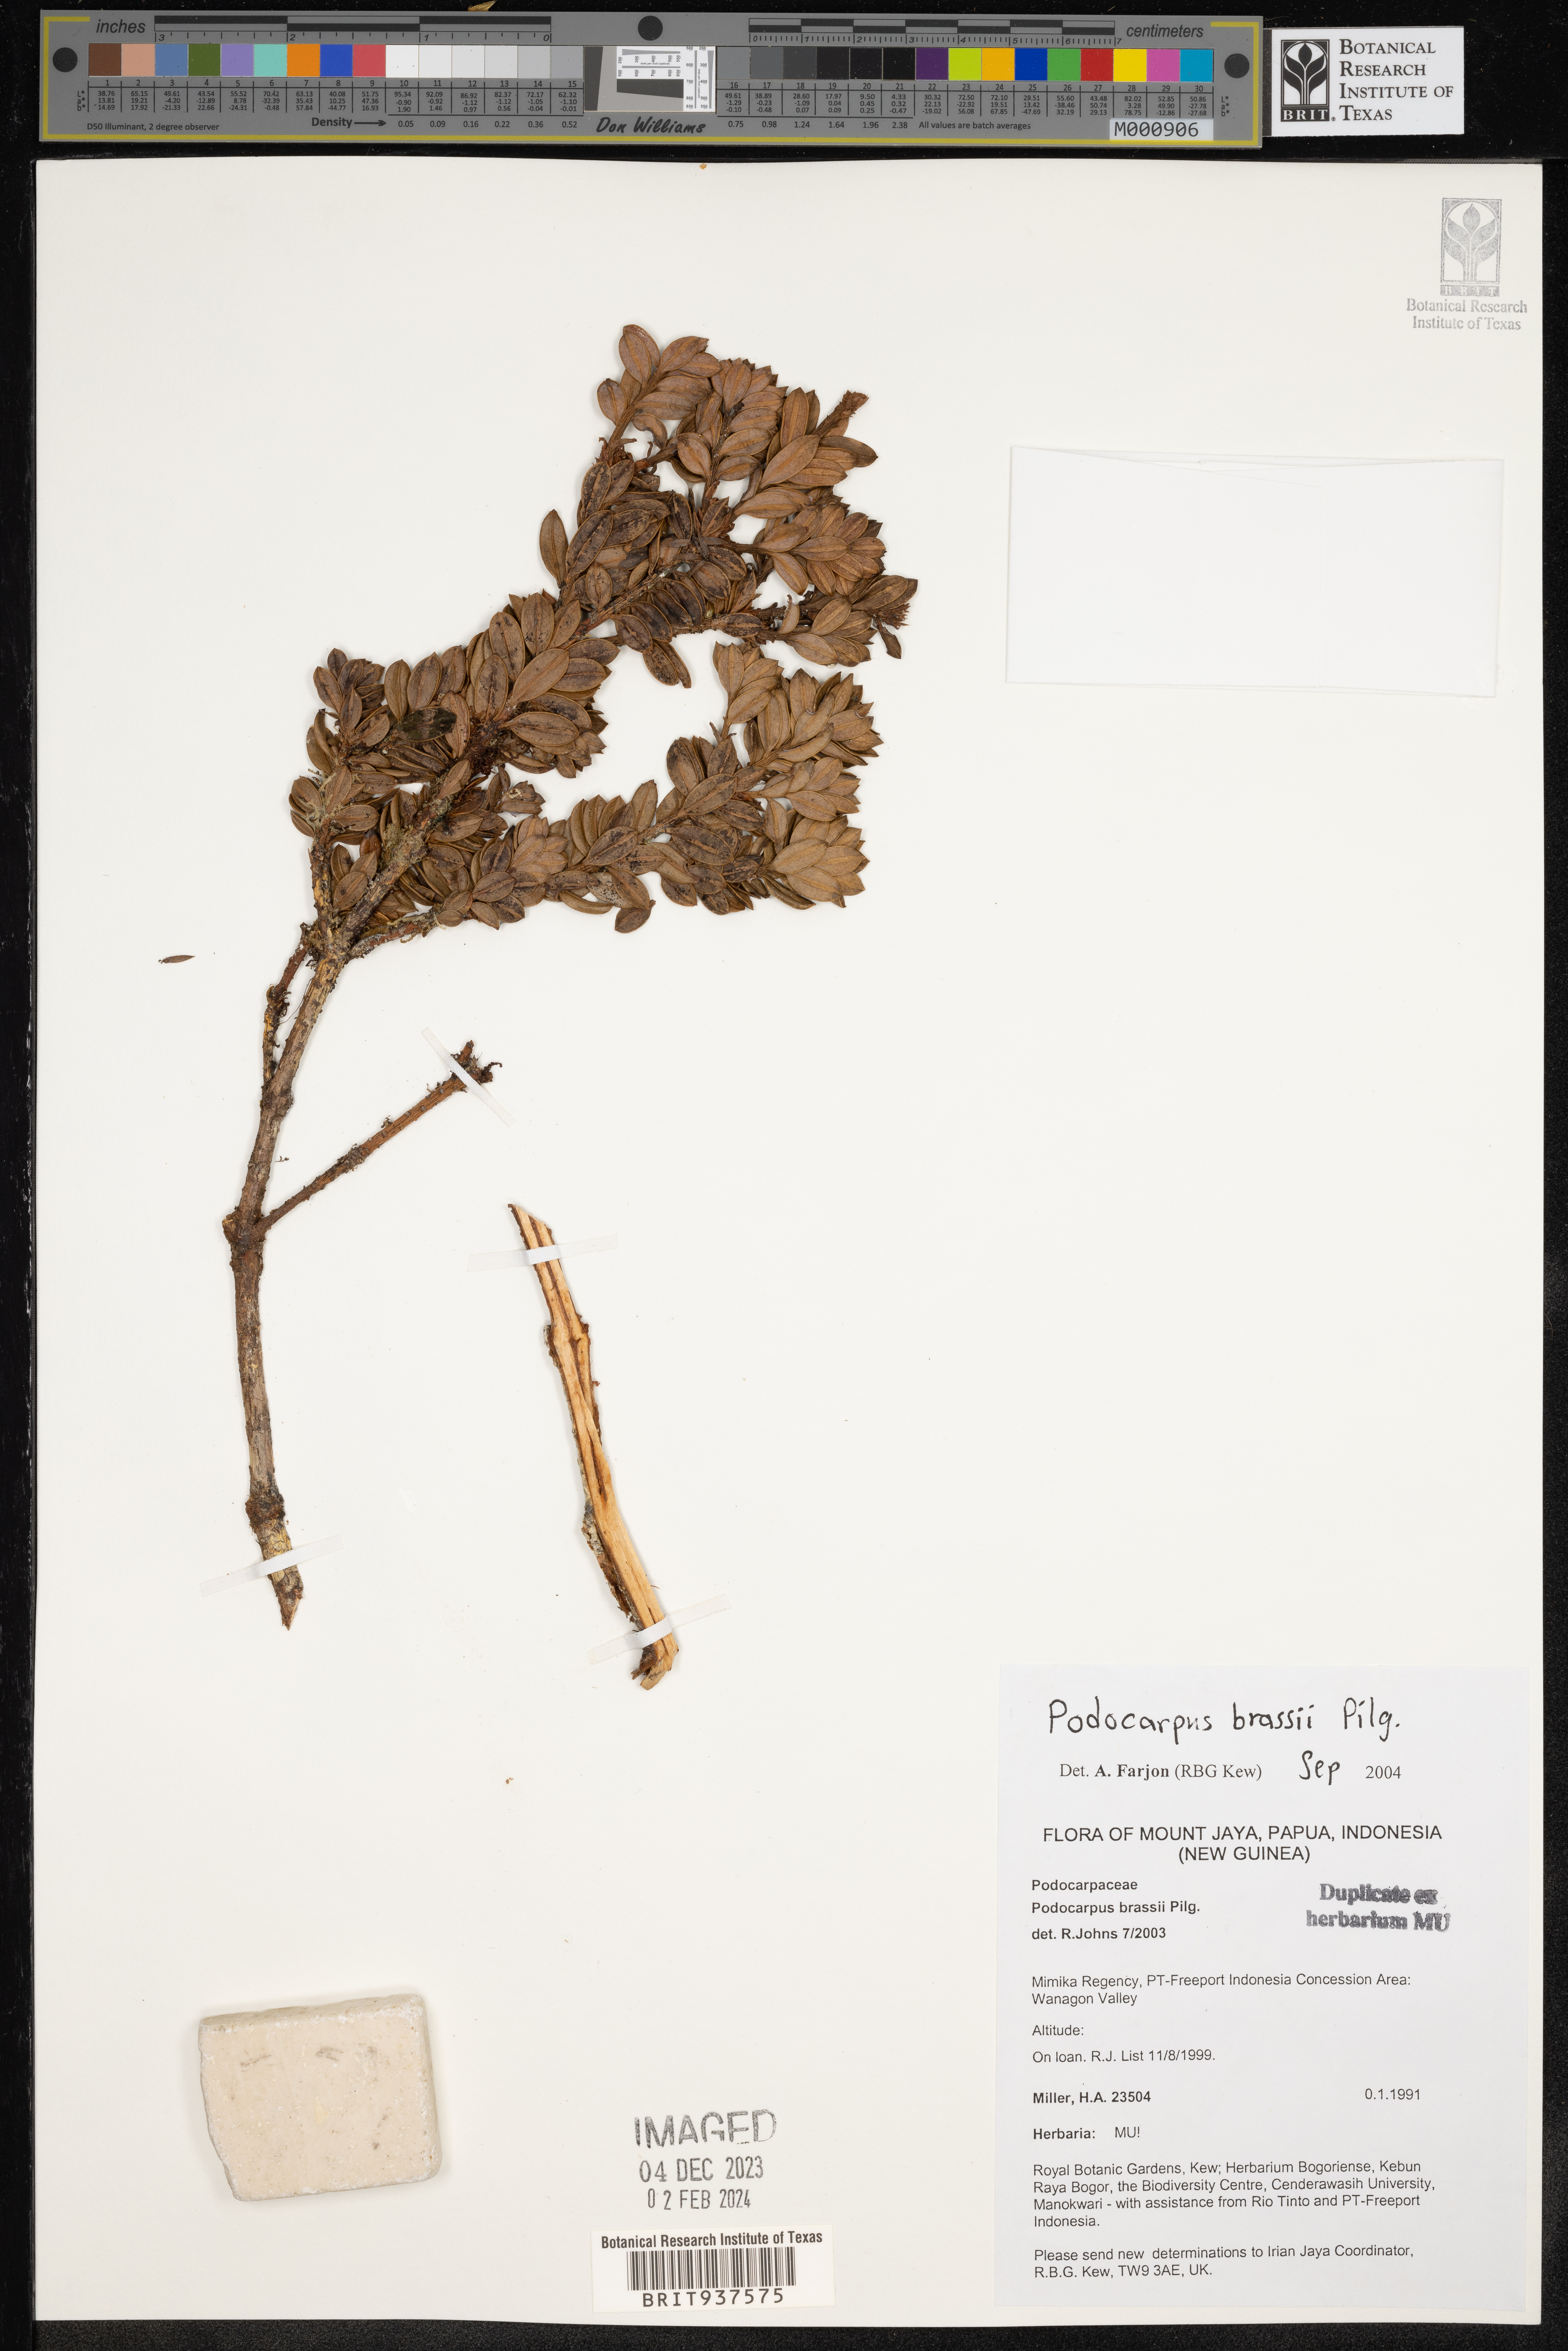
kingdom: Plantae
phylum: Tracheophyta
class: Pinopsida
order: Pinales
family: Podocarpaceae
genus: Podocarpus
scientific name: Podocarpus
